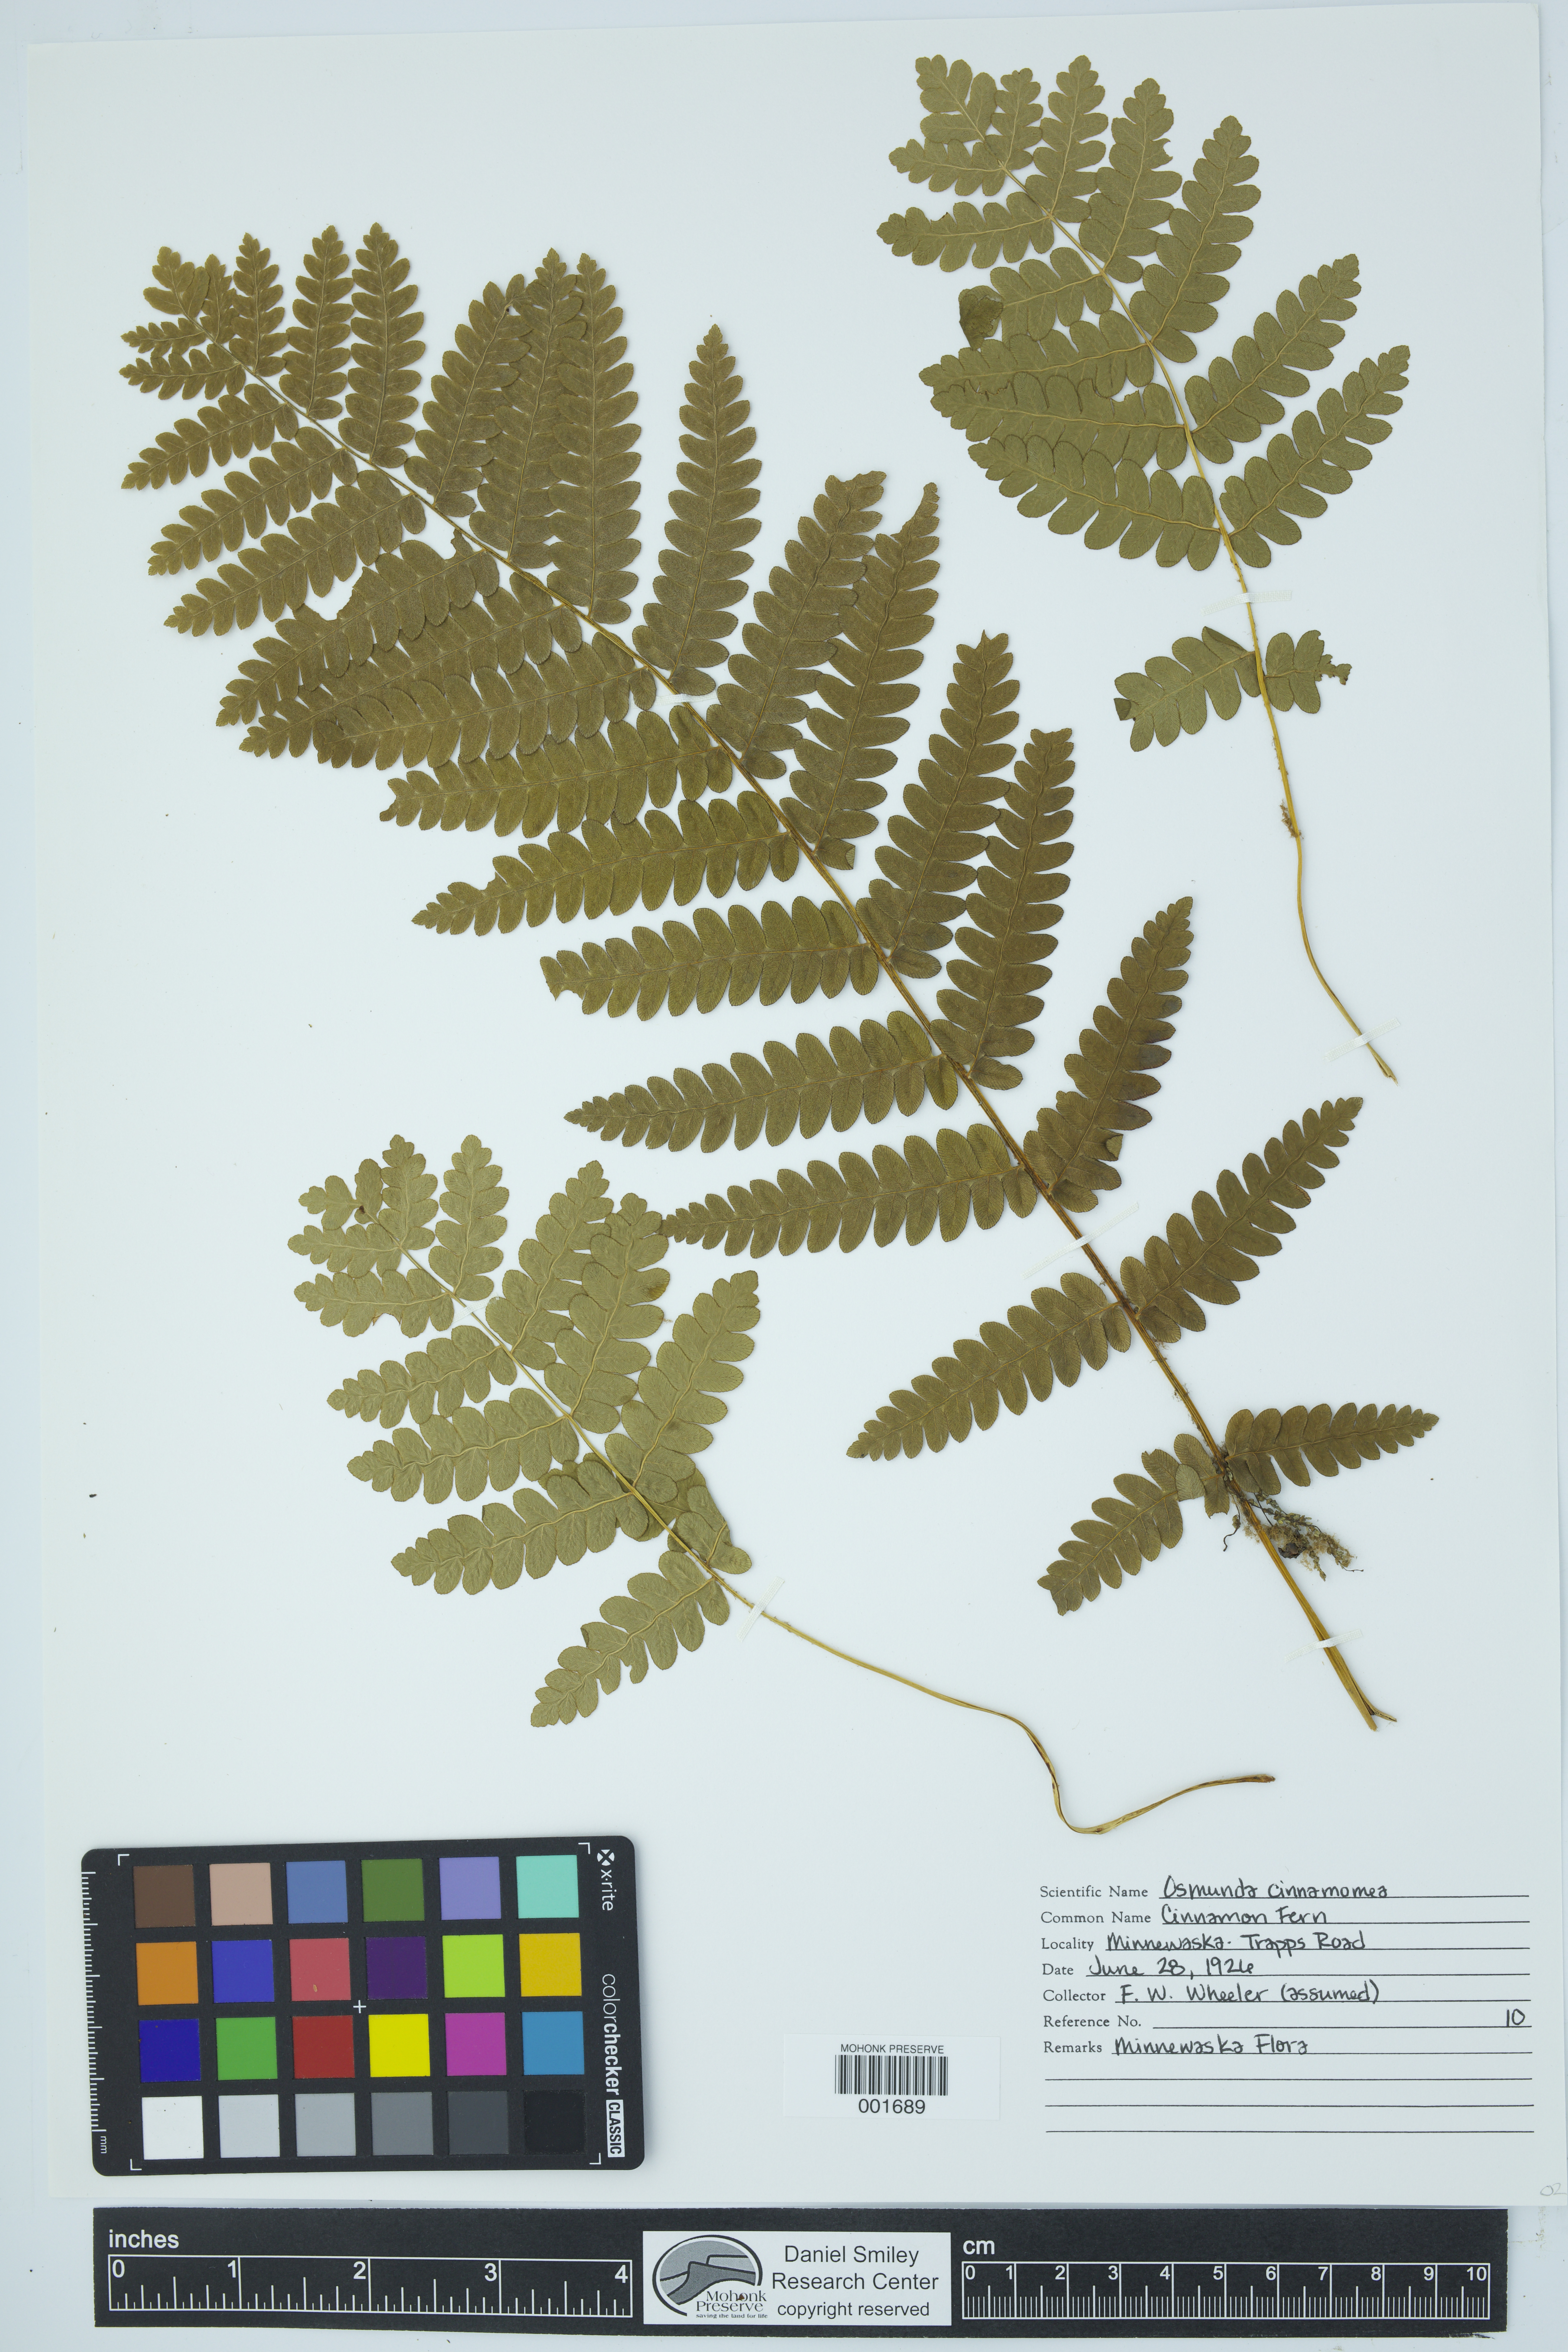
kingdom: Plantae
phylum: Tracheophyta
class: Polypodiopsida
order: Osmundales
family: Osmundaceae
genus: Osmundastrum
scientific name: Osmundastrum cinnamomeum
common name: Cinnamon fern
